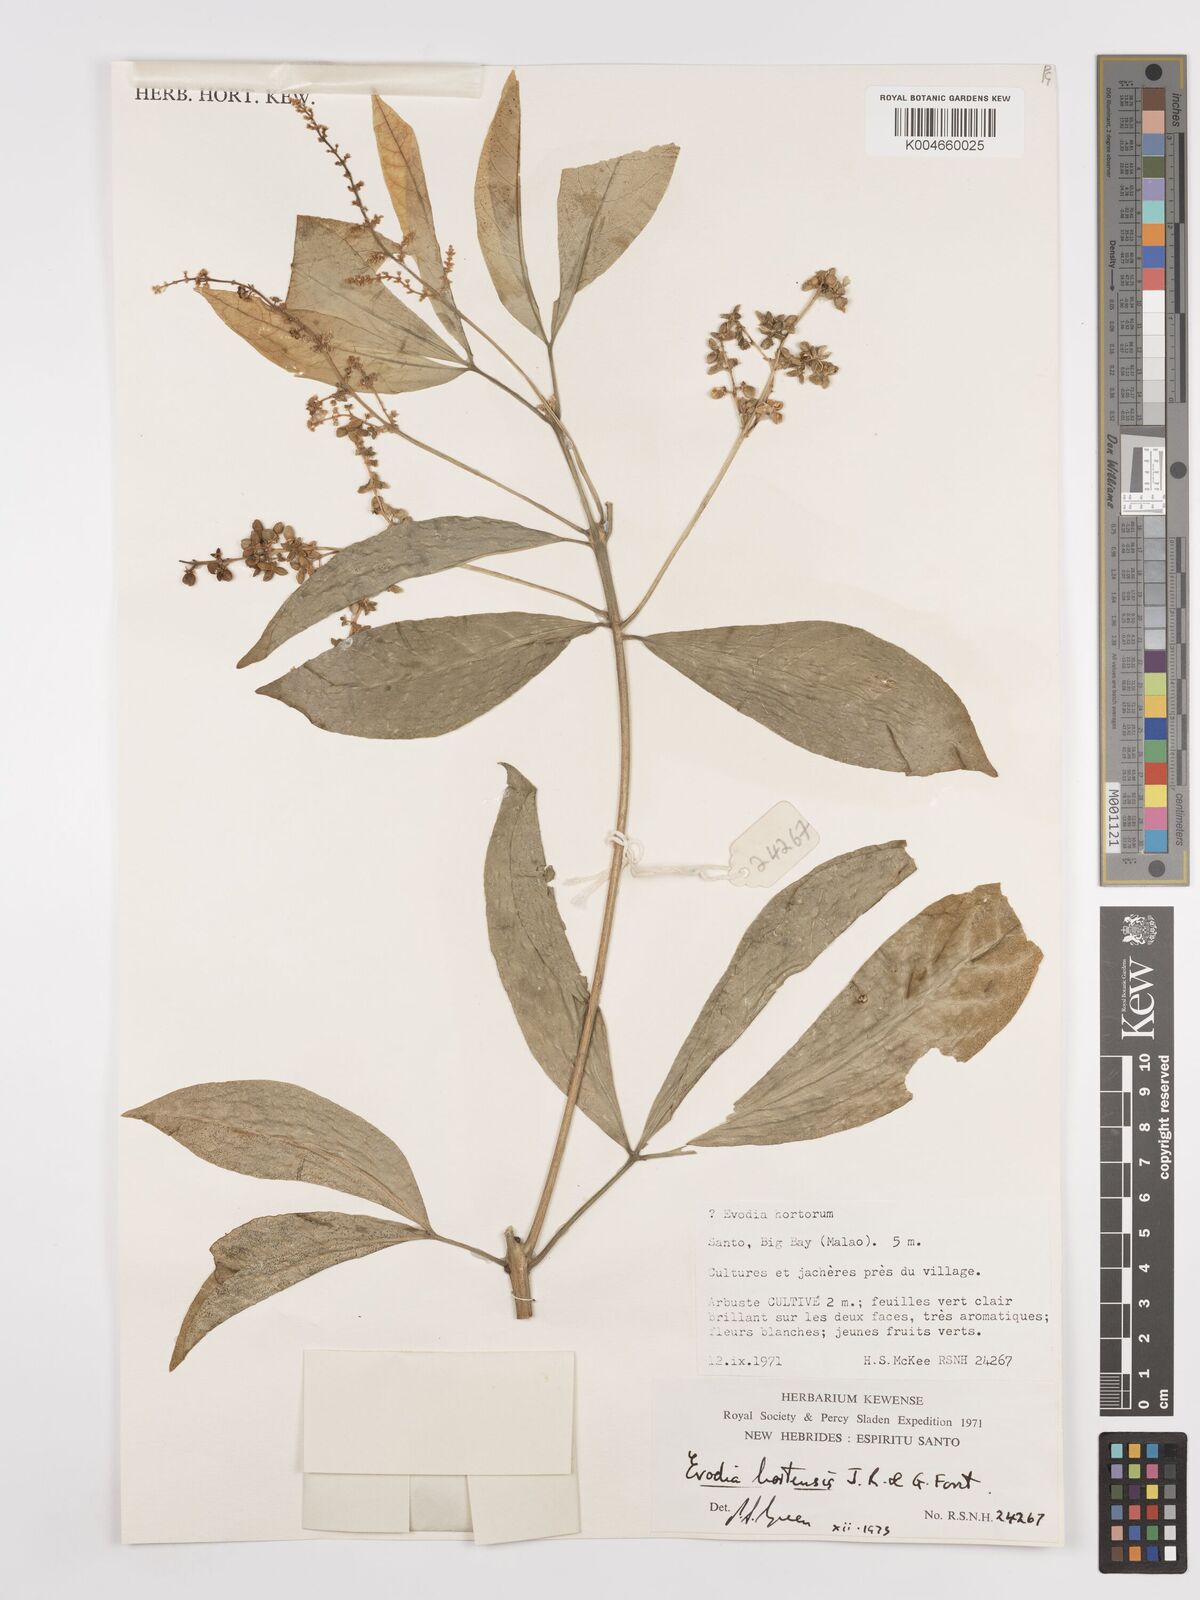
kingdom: Plantae
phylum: Tracheophyta
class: Magnoliopsida
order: Sapindales
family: Rutaceae
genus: Euodia
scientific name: Euodia hortensis
